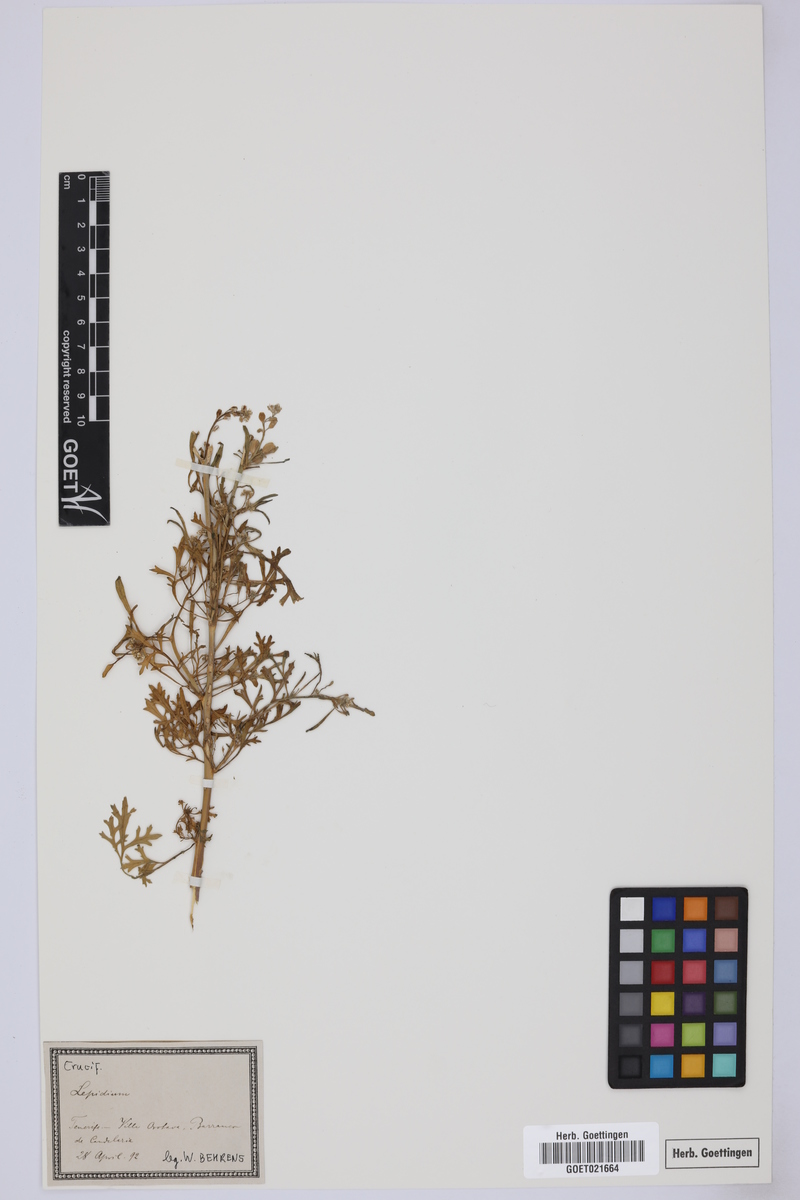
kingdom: Plantae
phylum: Tracheophyta
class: Magnoliopsida
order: Brassicales
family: Brassicaceae
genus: Lepidium
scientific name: Lepidium
